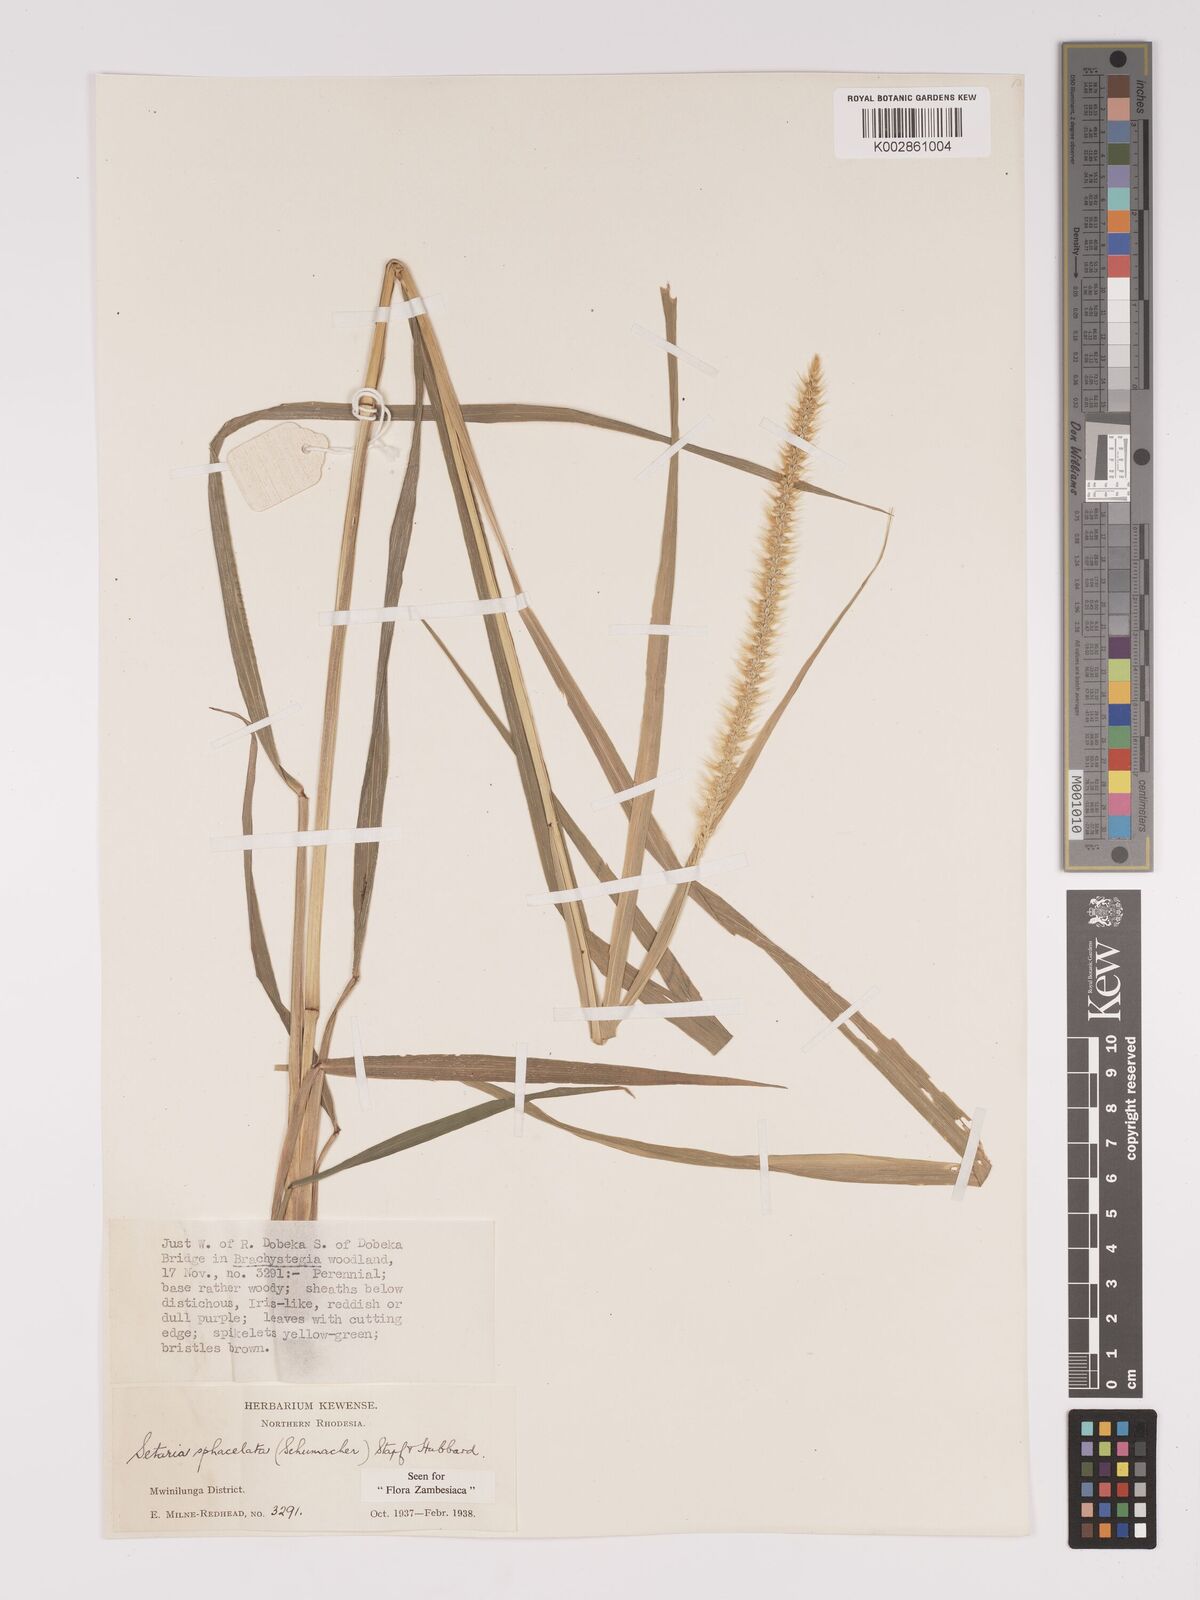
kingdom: Plantae
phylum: Tracheophyta
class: Liliopsida
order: Poales
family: Poaceae
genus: Setaria
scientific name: Setaria sphacelata
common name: African bristlegrass
